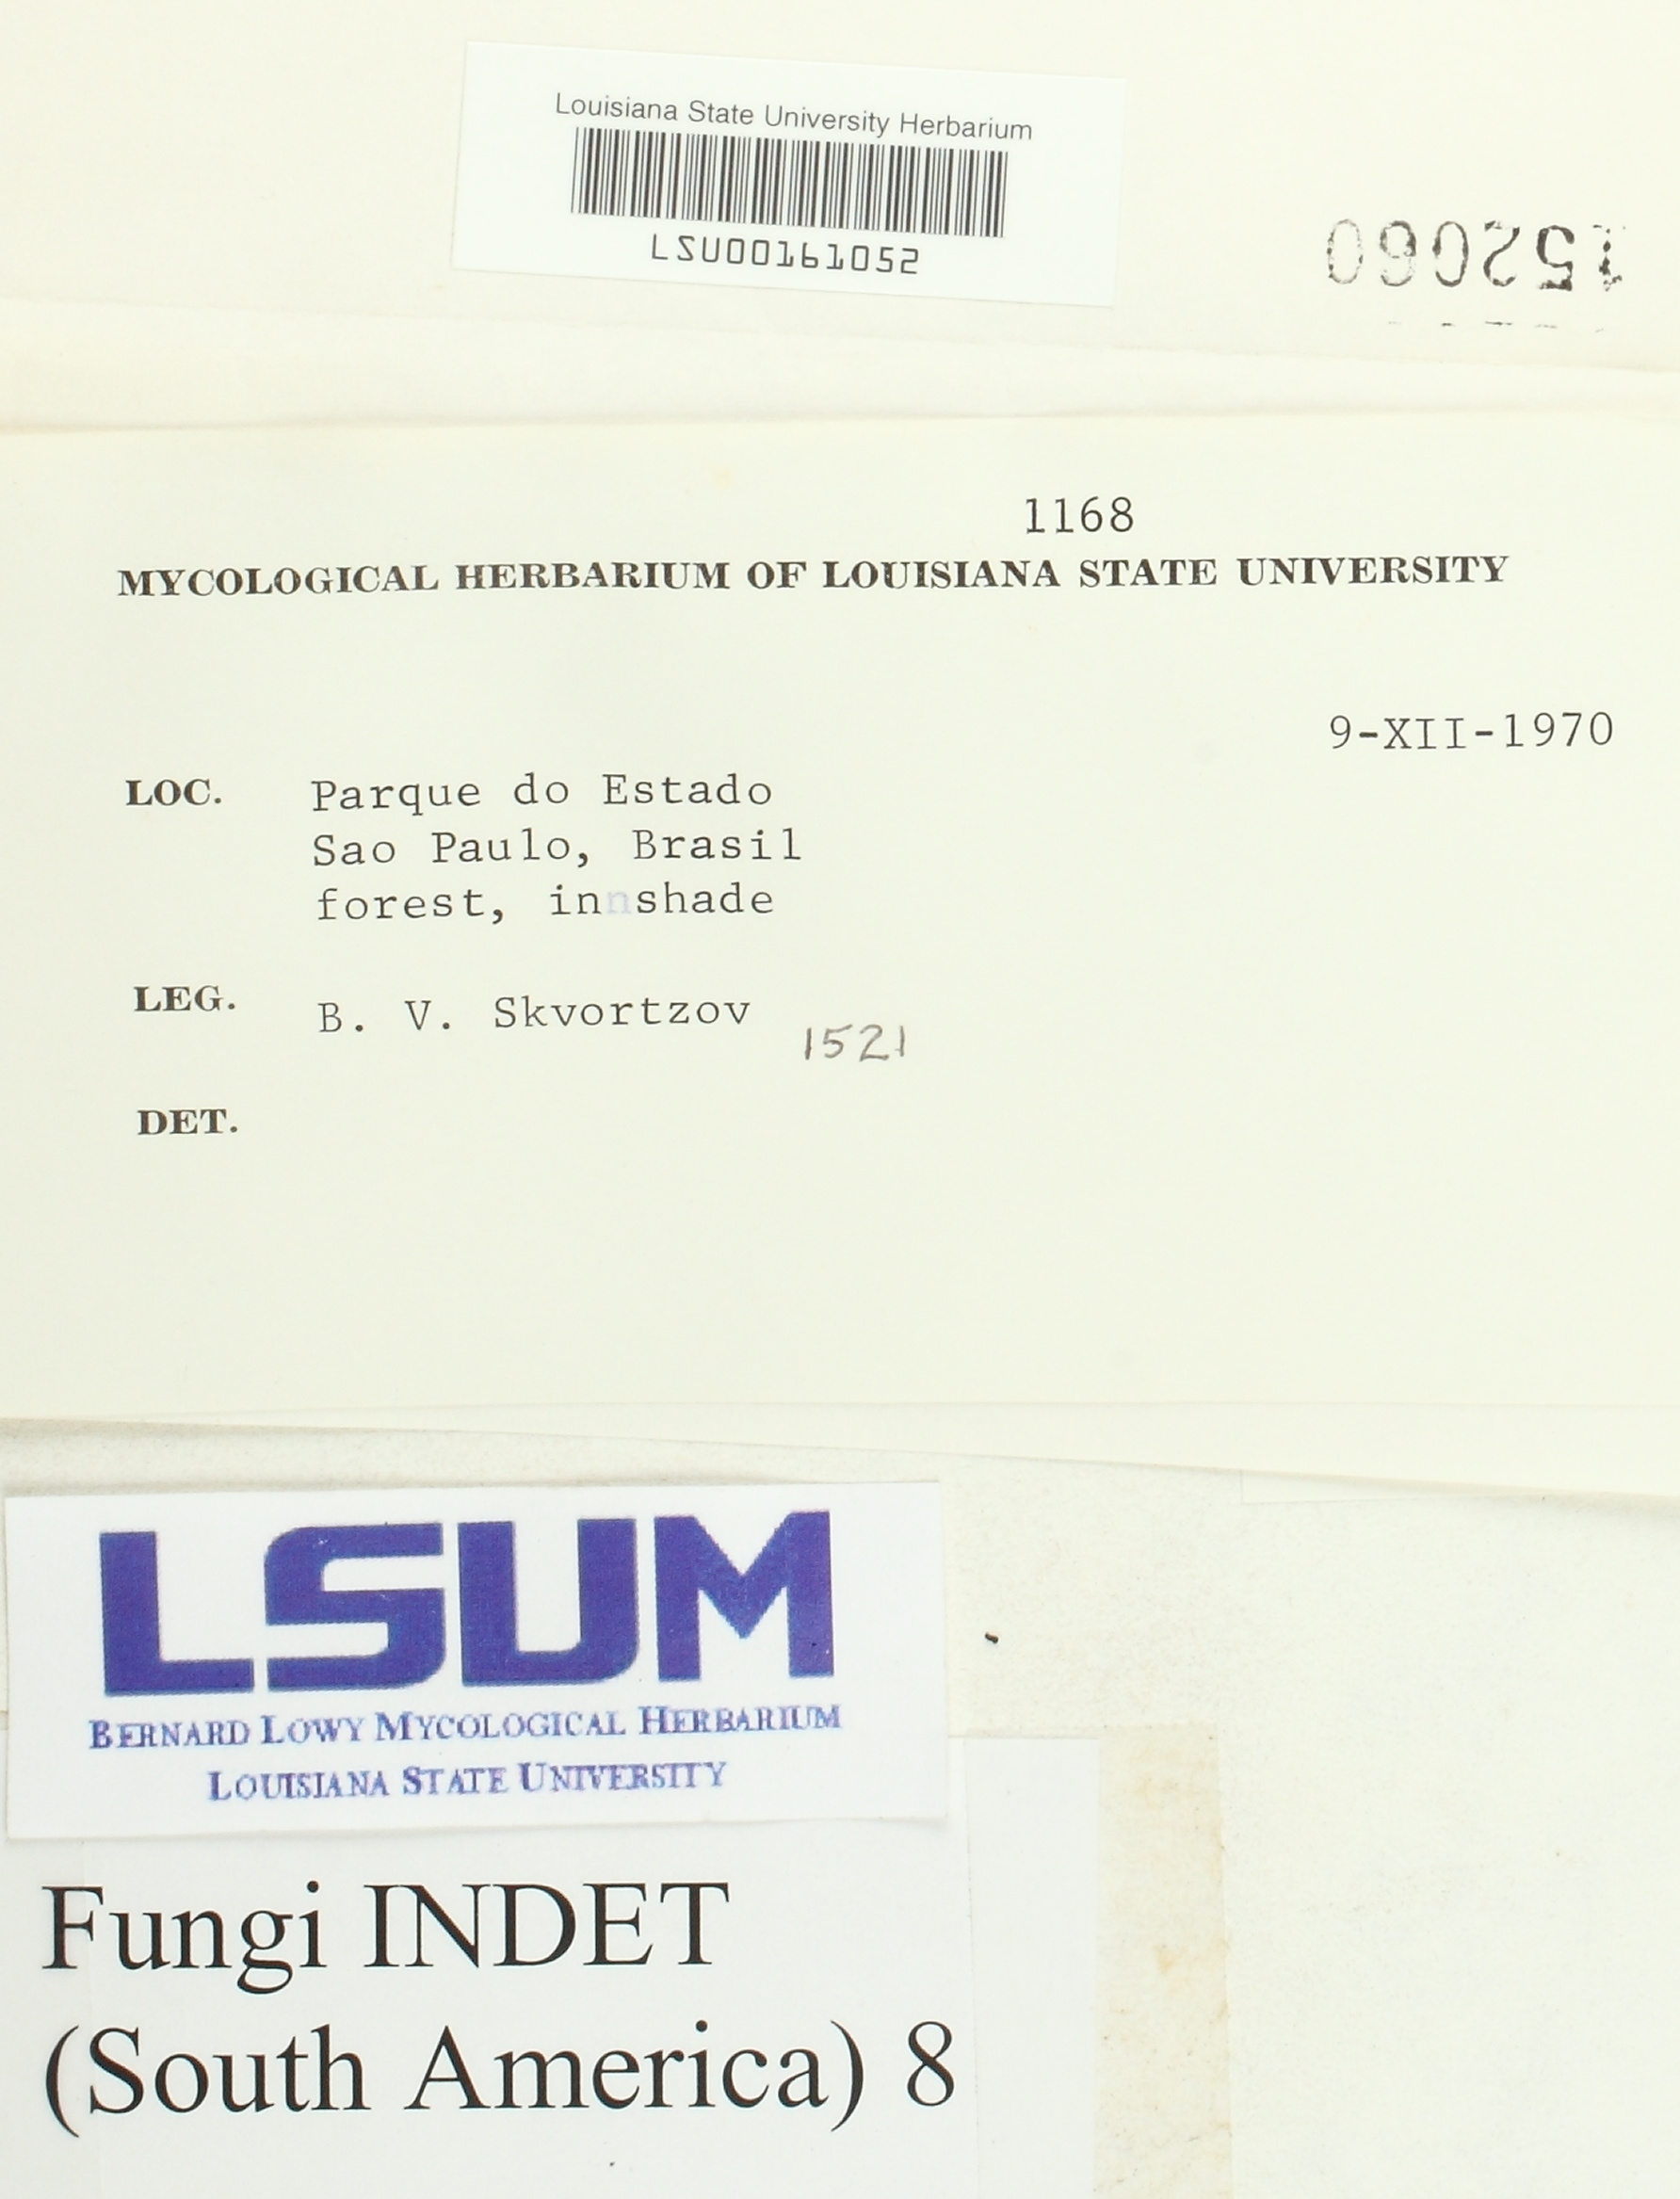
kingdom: Fungi
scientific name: Fungi
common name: Fungi
